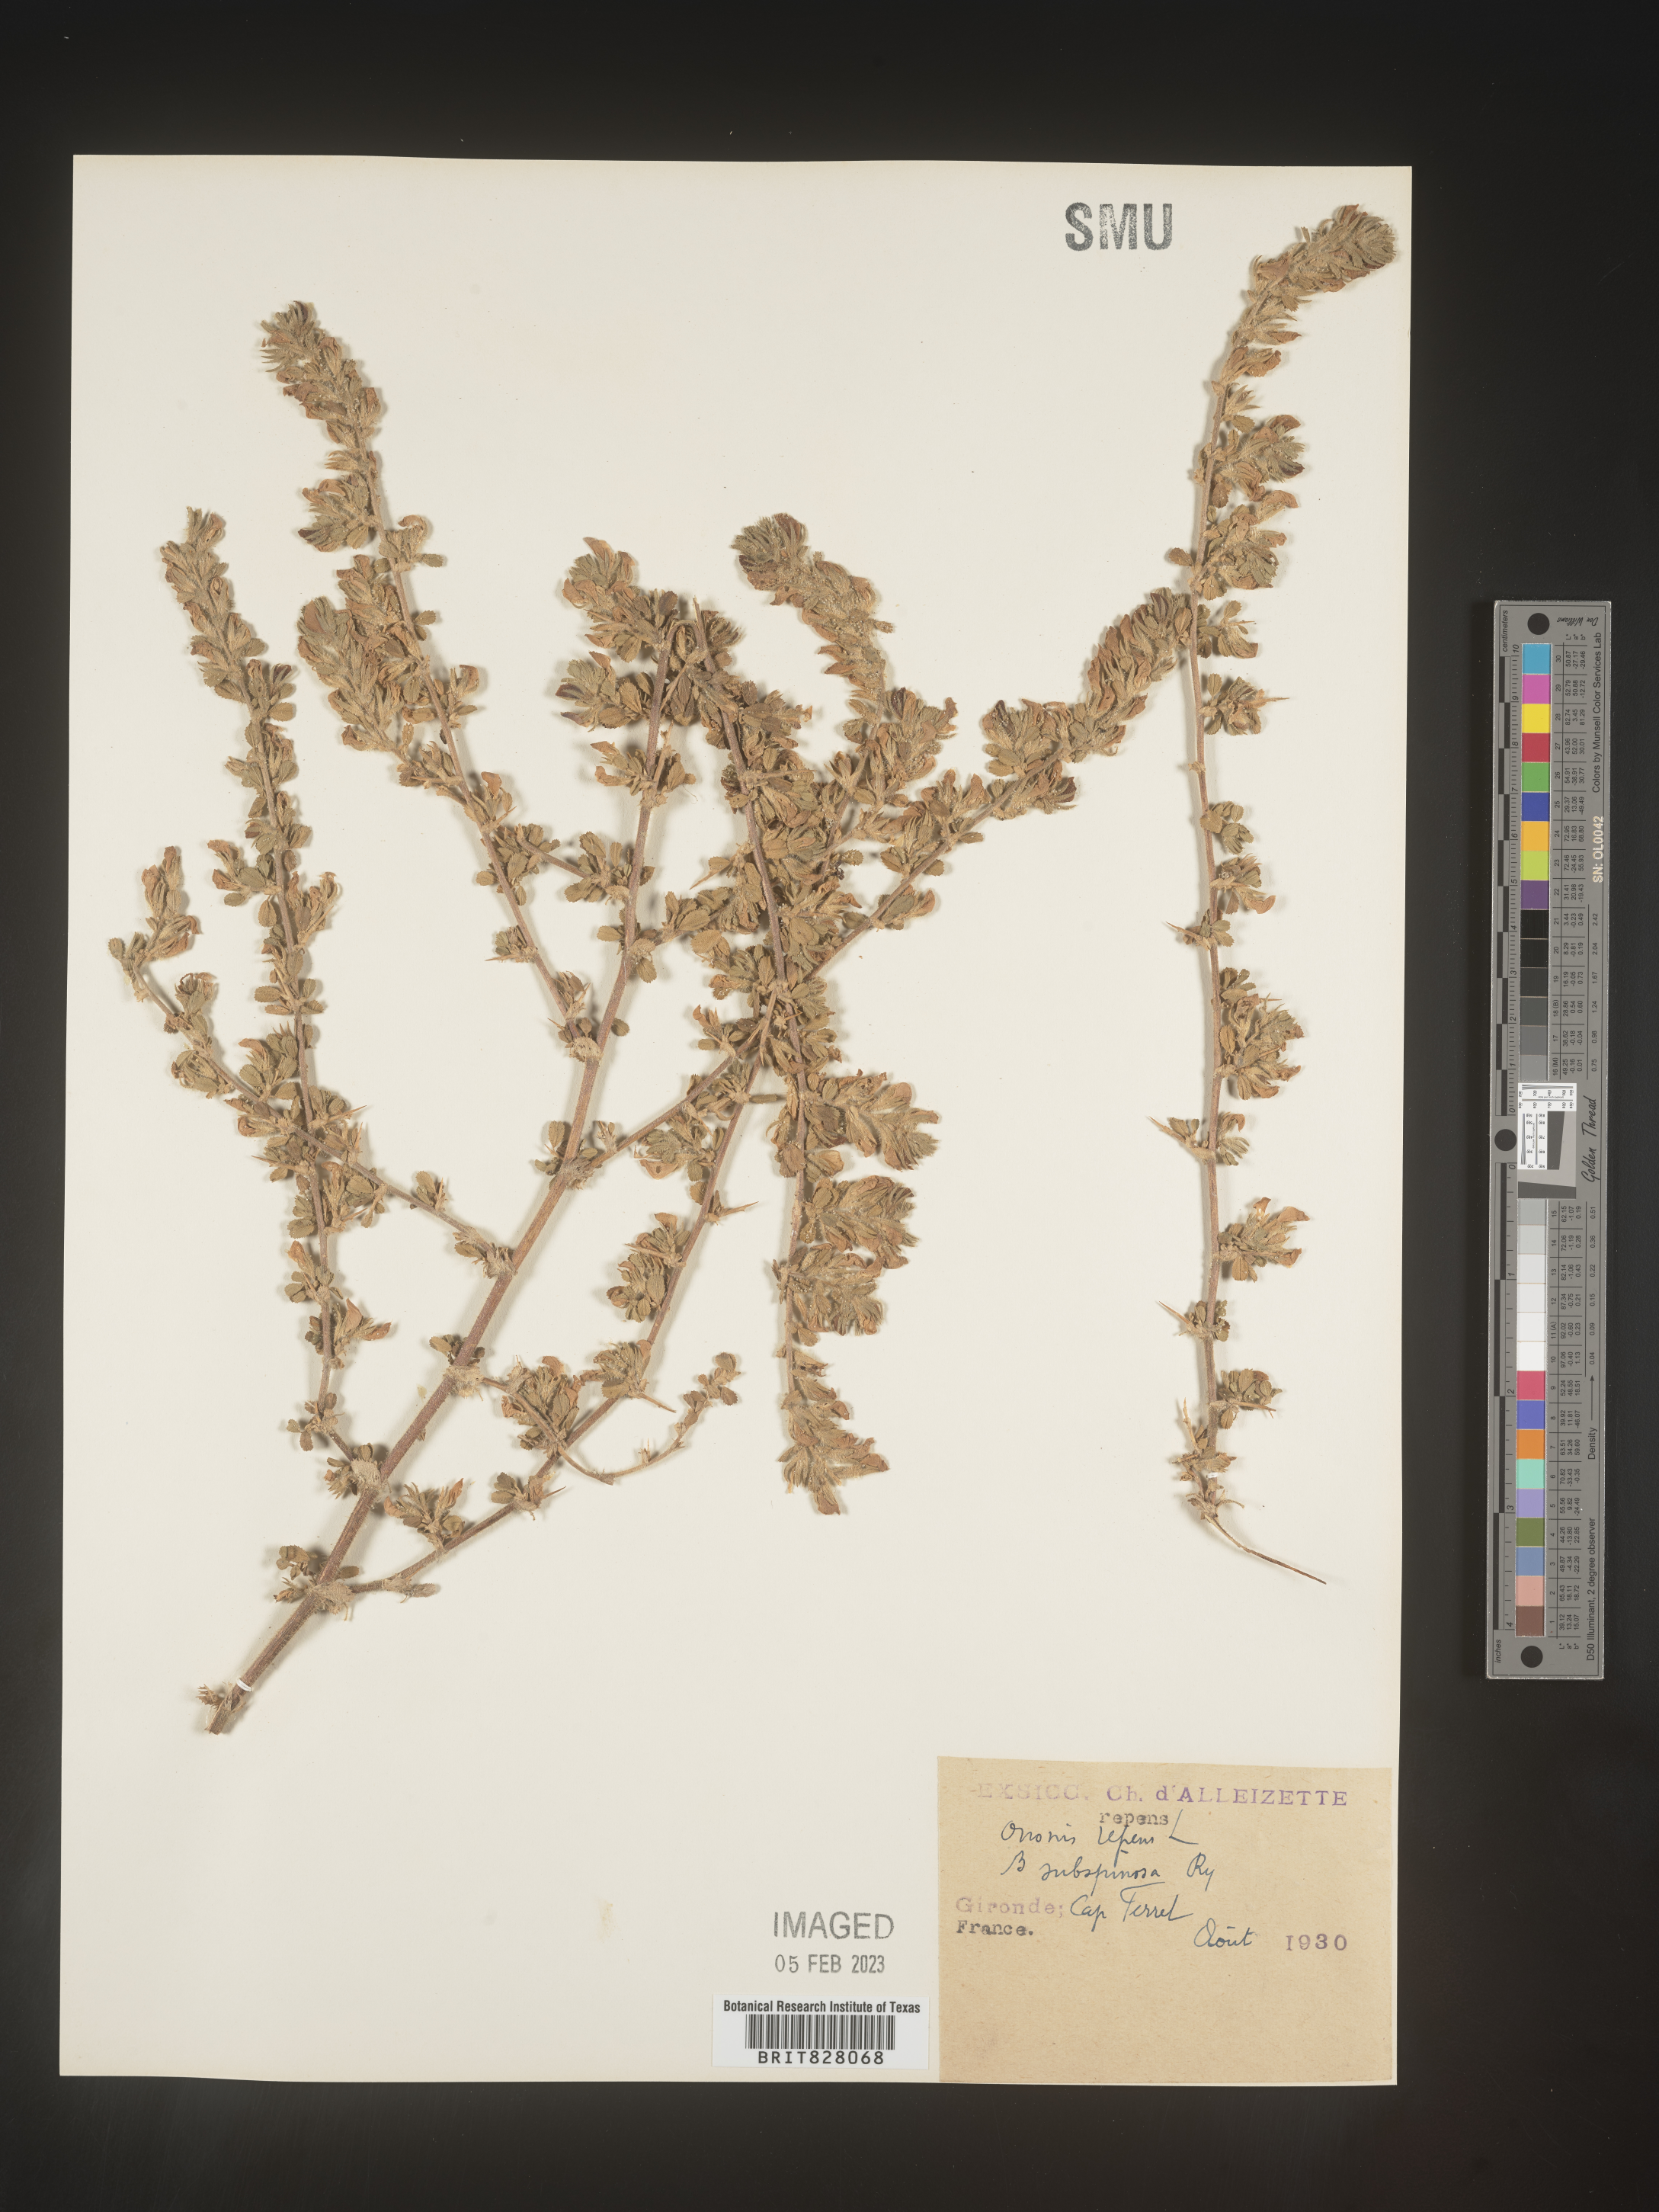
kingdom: Plantae
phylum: Tracheophyta
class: Magnoliopsida
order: Fabales
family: Fabaceae
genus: Ononis
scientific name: Ononis
